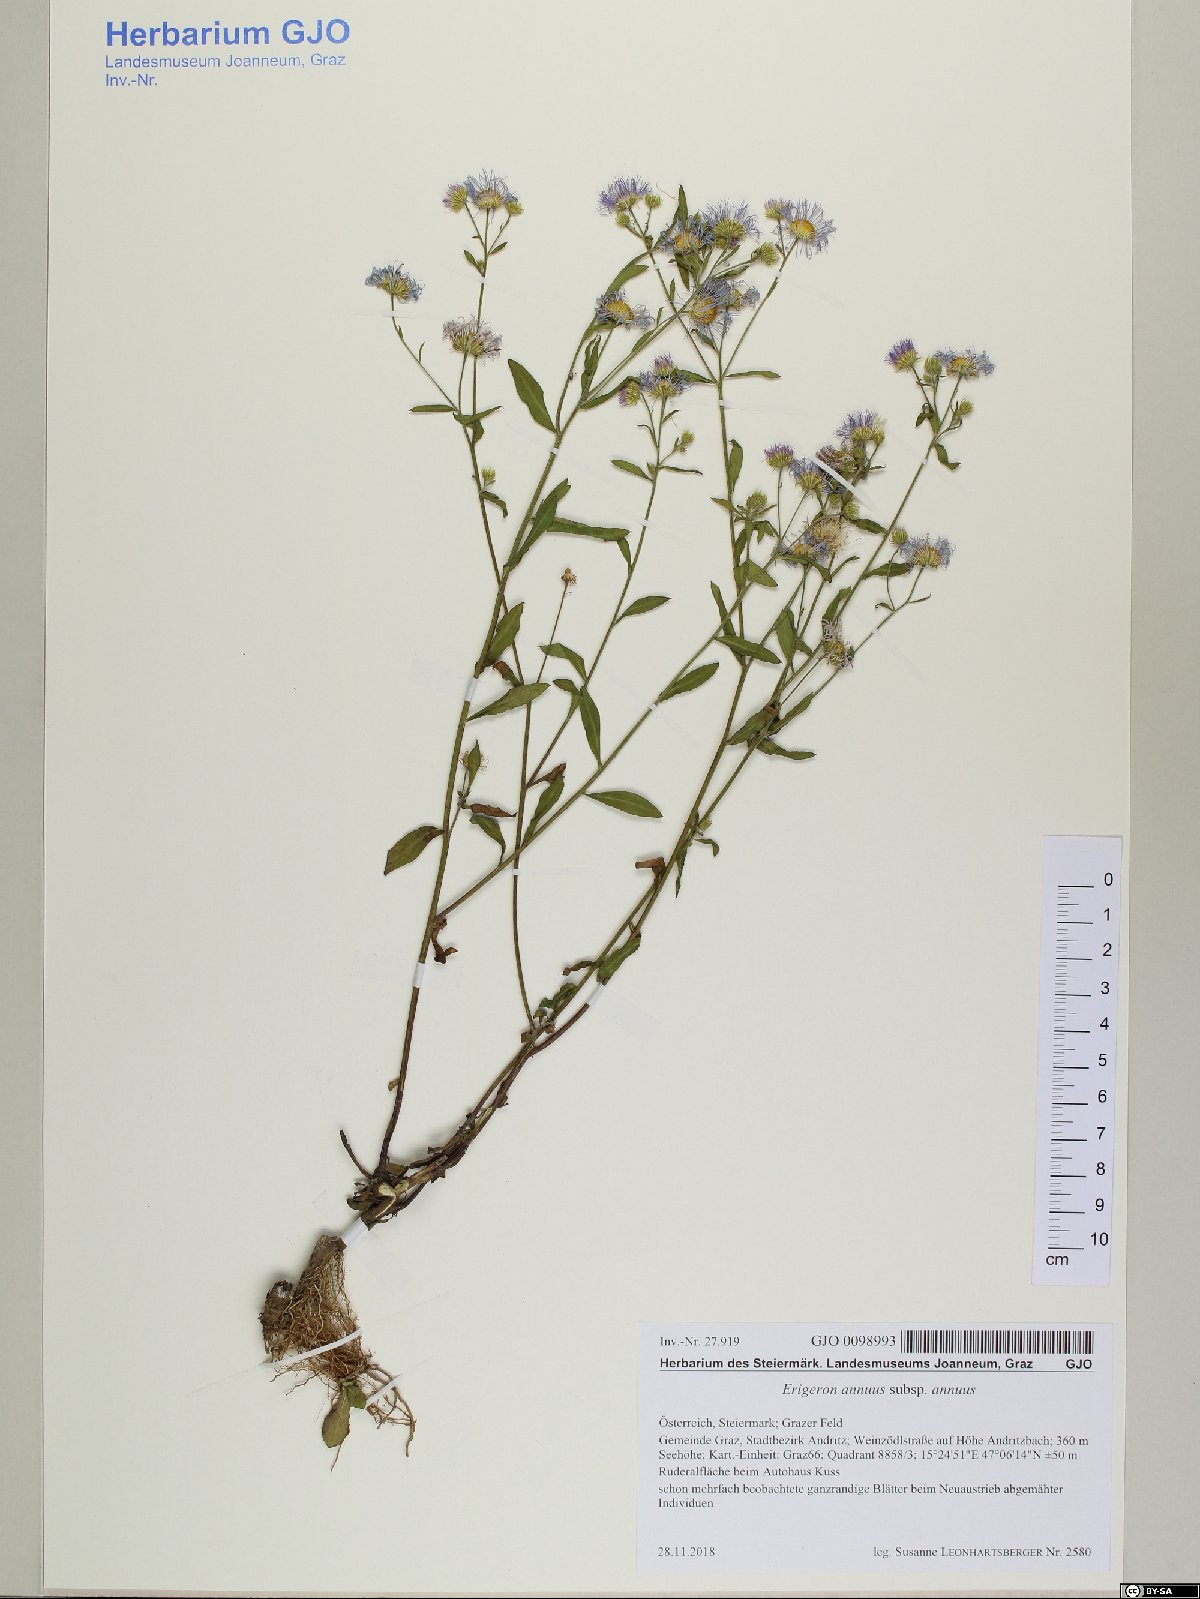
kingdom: Plantae
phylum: Tracheophyta
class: Magnoliopsida
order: Asterales
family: Asteraceae
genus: Erigeron
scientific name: Erigeron annuus
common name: Tall fleabane
